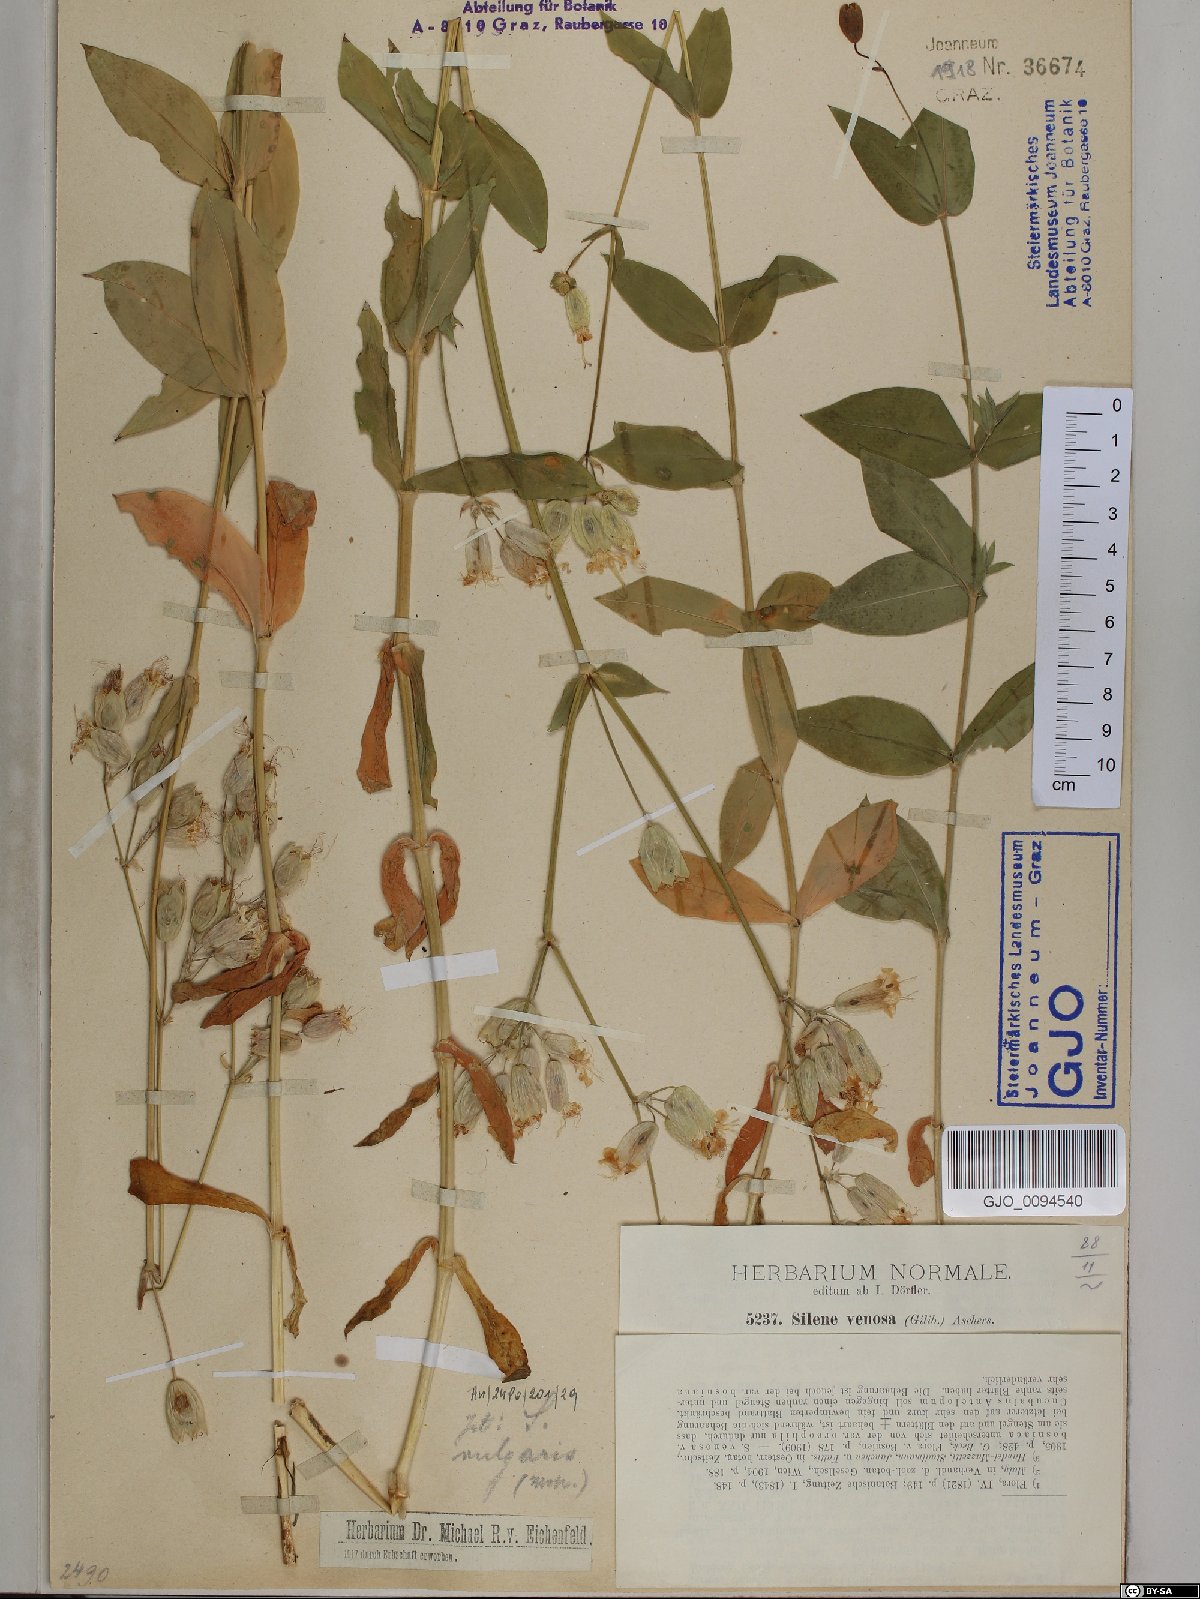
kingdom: Plantae
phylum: Tracheophyta
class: Magnoliopsida
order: Caryophyllales
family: Caryophyllaceae
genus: Silene
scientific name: Silene vulgaris
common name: Bladder campion
